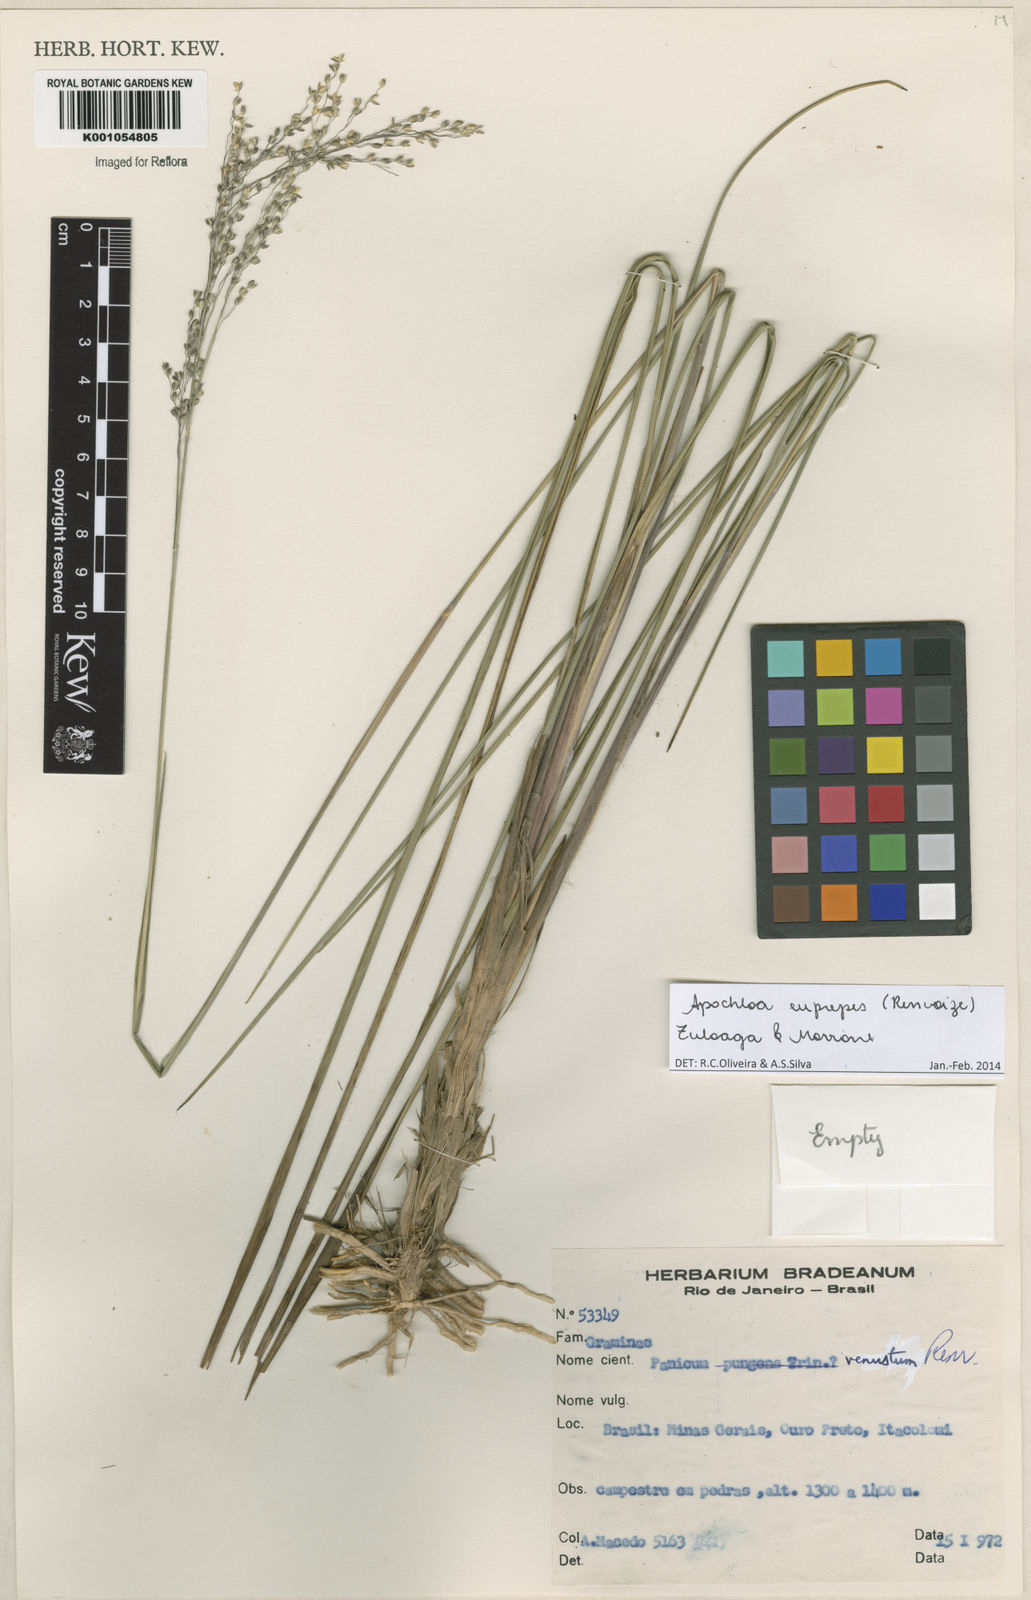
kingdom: Plantae
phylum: Tracheophyta
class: Liliopsida
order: Poales
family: Poaceae
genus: Apochloa
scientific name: Apochloa euprepes
